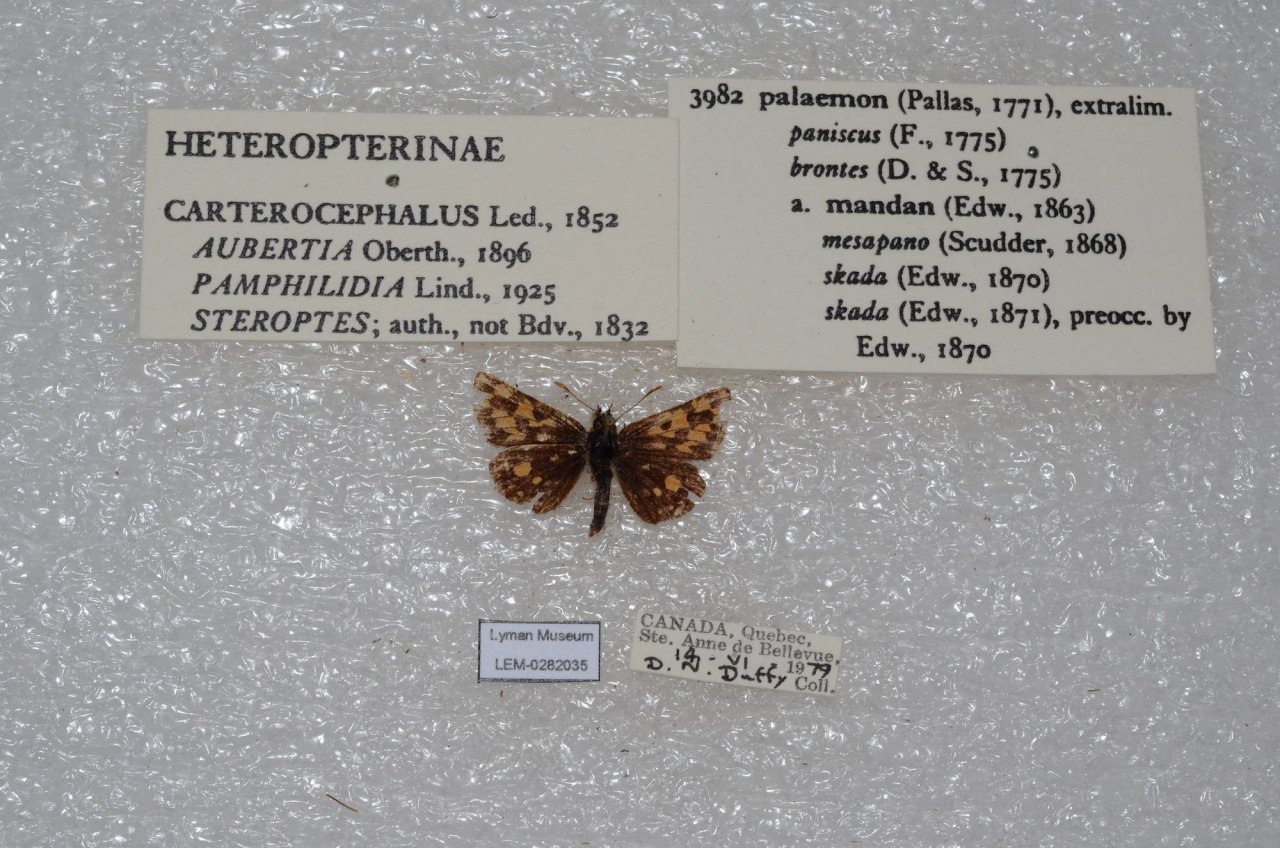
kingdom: Animalia
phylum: Arthropoda
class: Insecta
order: Lepidoptera
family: Hesperiidae
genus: Carterocephalus
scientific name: Carterocephalus palaemon
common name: Chequered Skipper
